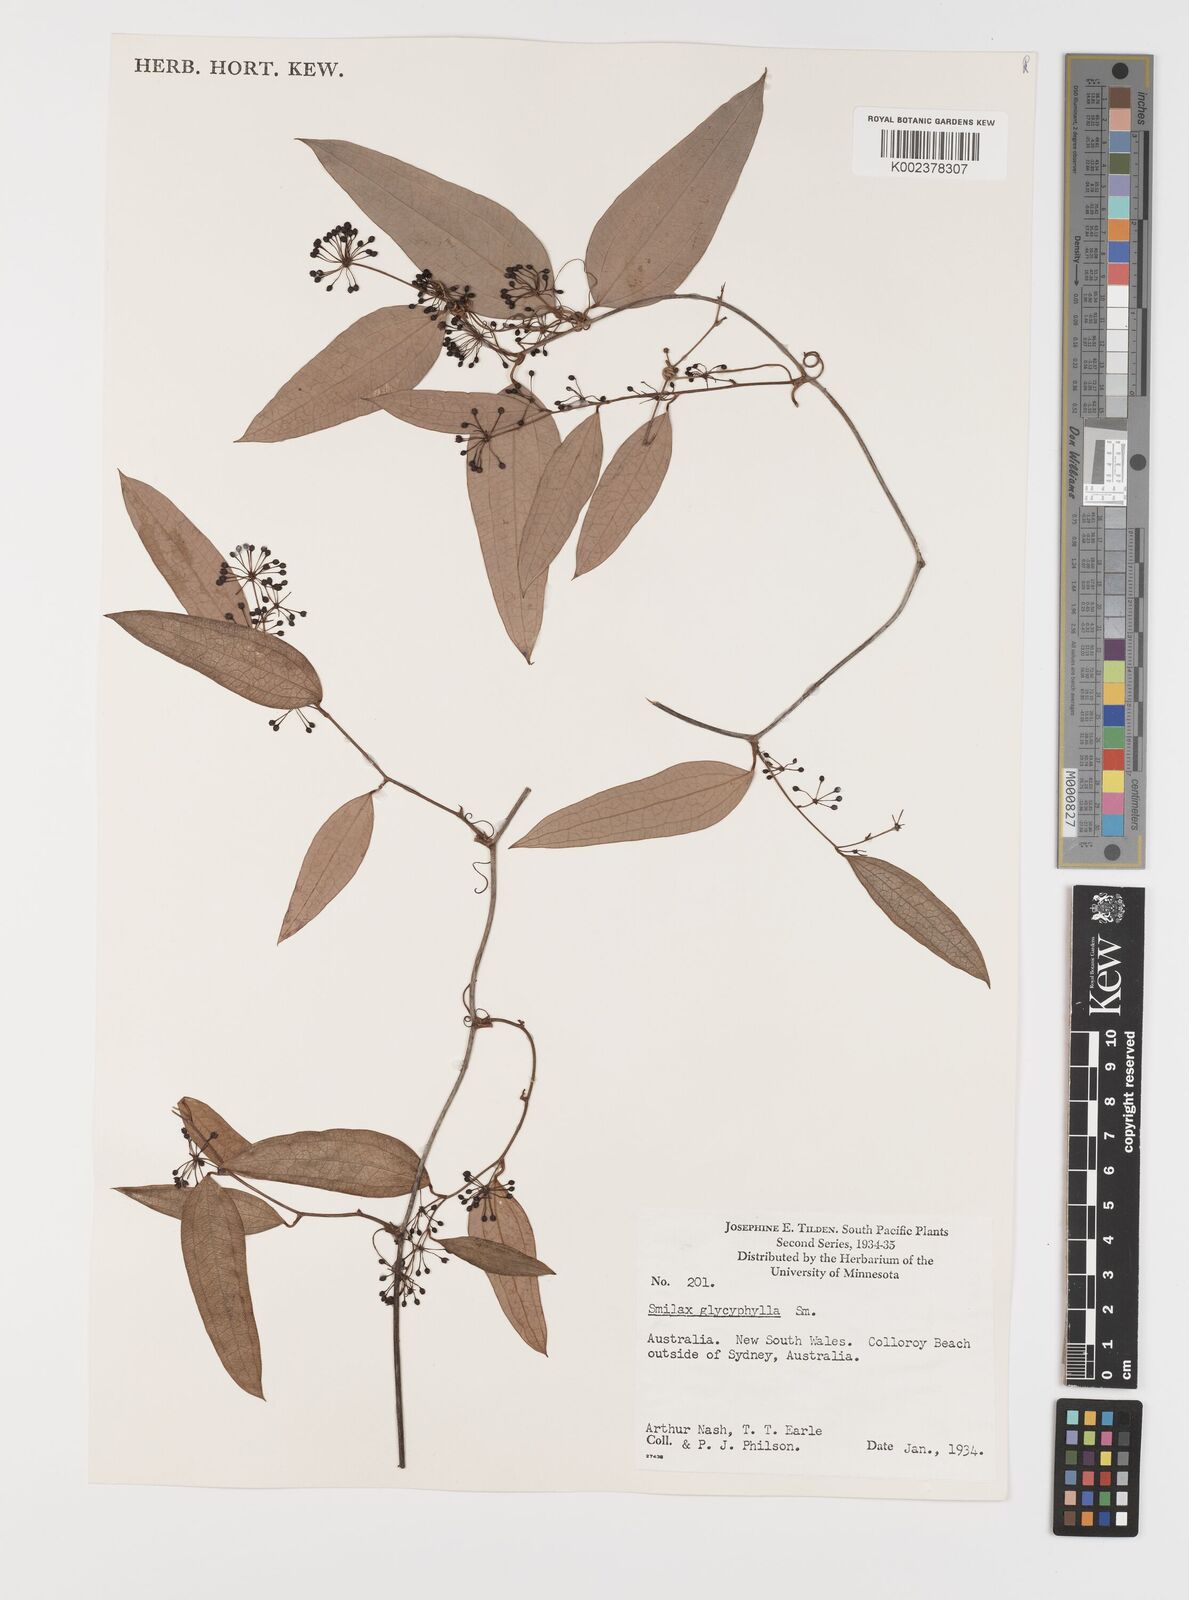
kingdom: Plantae
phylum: Tracheophyta
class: Liliopsida
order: Liliales
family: Smilacaceae
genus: Smilax
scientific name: Smilax leucophylla
